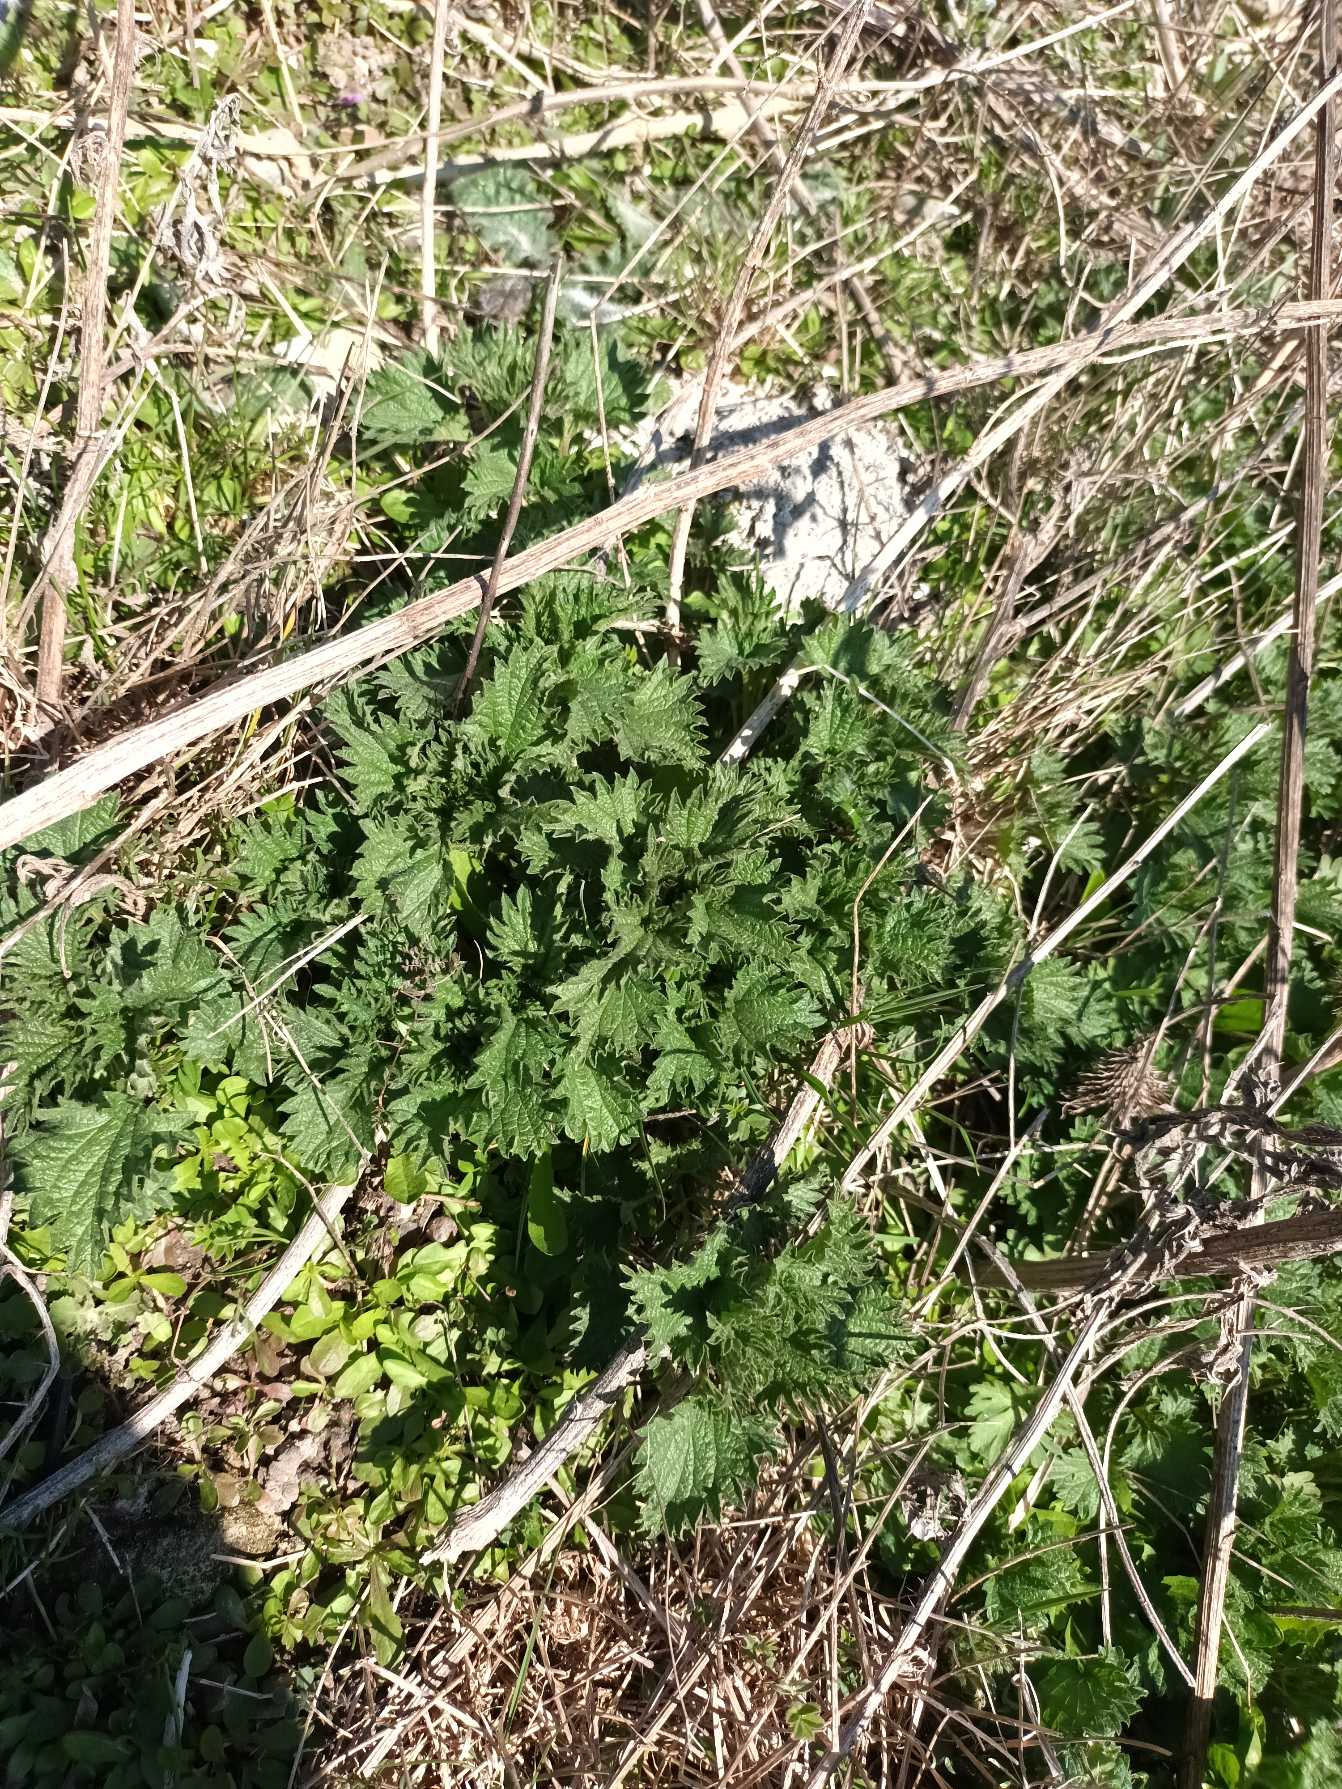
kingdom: Plantae
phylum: Tracheophyta
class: Magnoliopsida
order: Rosales
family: Urticaceae
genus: Urtica
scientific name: Urtica dioica
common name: Stor nælde
